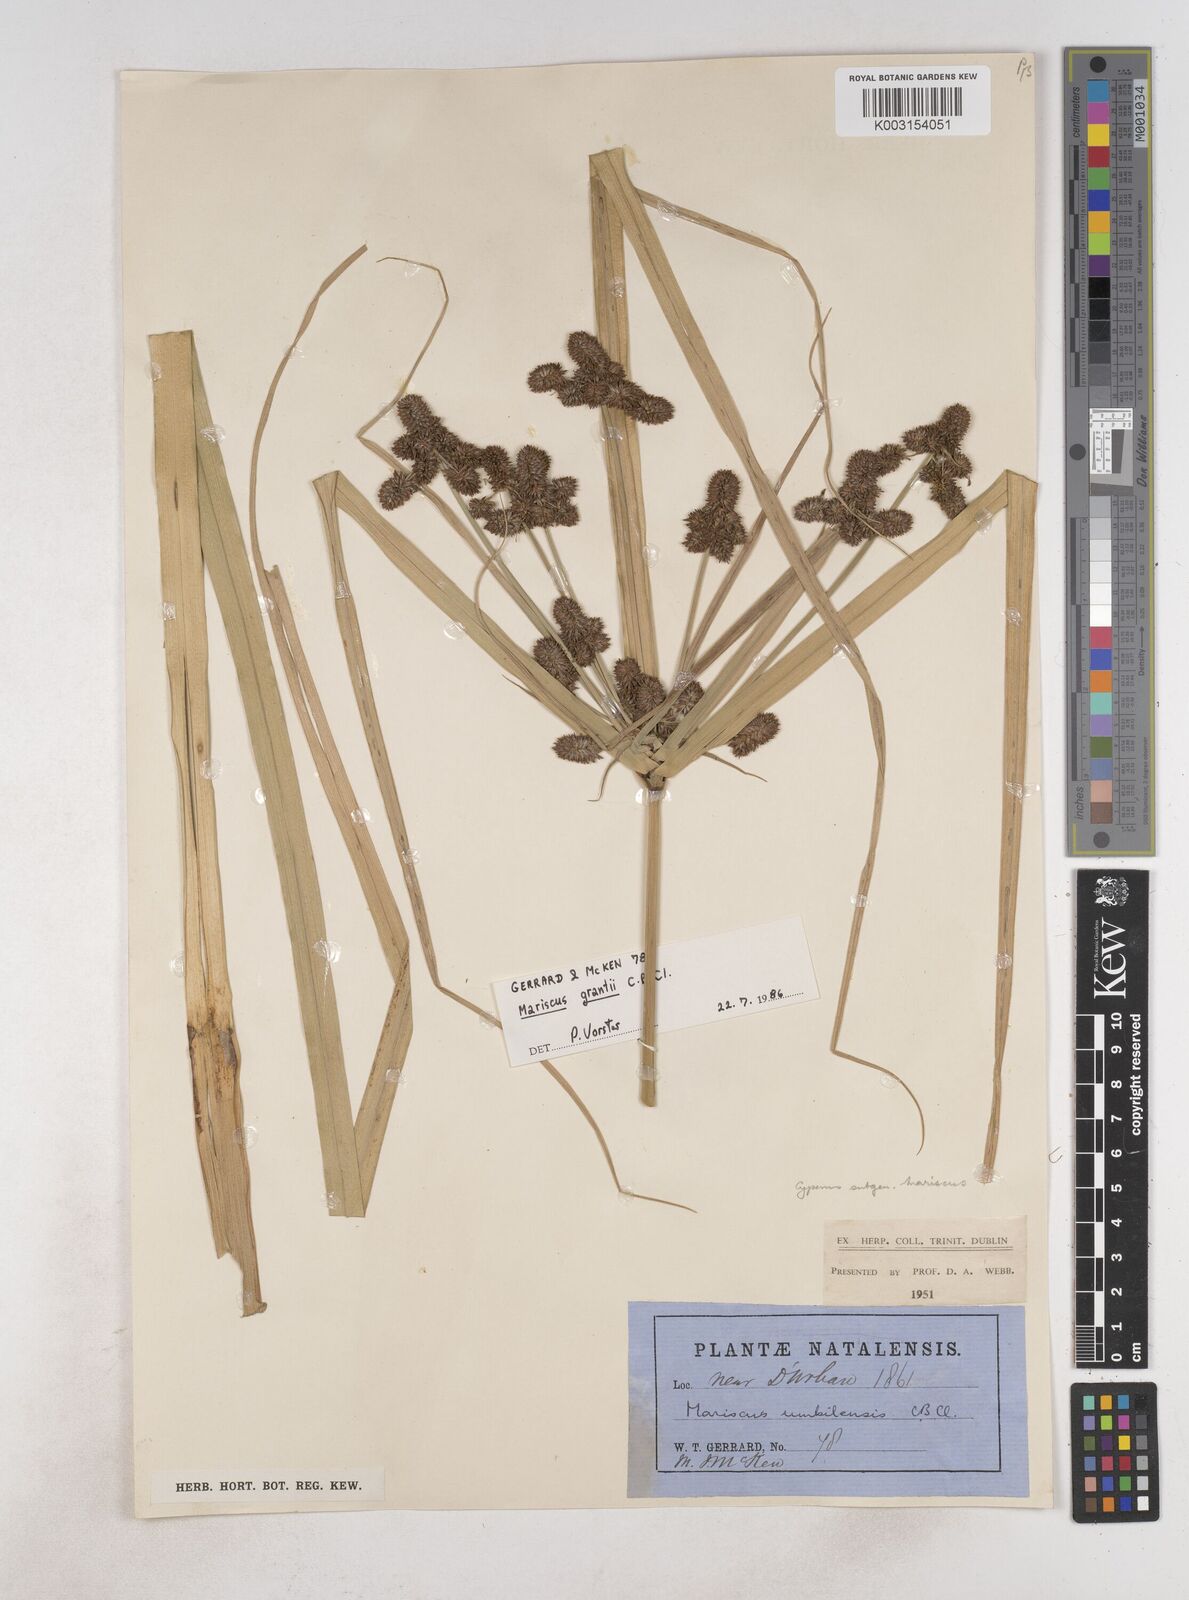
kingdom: Plantae
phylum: Tracheophyta
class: Liliopsida
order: Poales
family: Cyperaceae
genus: Cyperus
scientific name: Cyperus owanii
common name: Owan's flatsedge
